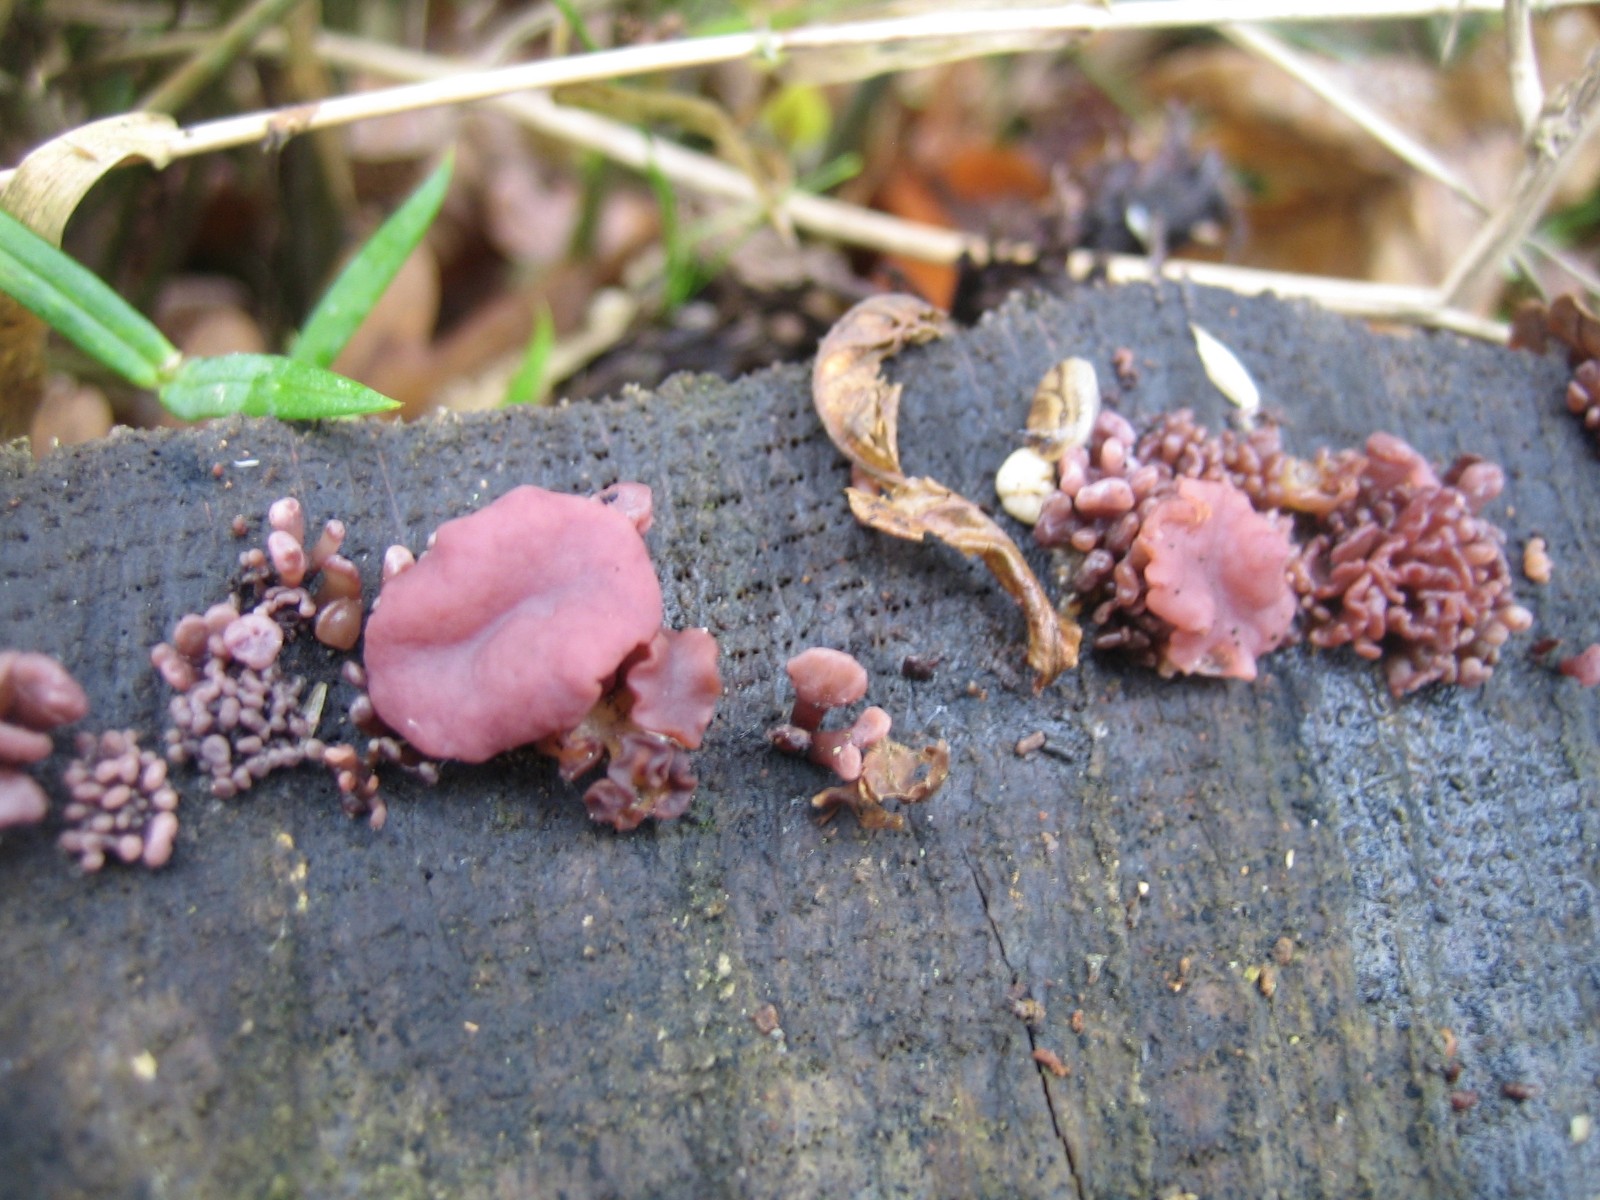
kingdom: Fungi
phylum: Ascomycota
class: Leotiomycetes
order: Helotiales
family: Gelatinodiscaceae
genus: Ascocoryne
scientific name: Ascocoryne sarcoides
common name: rødlilla sejskive
